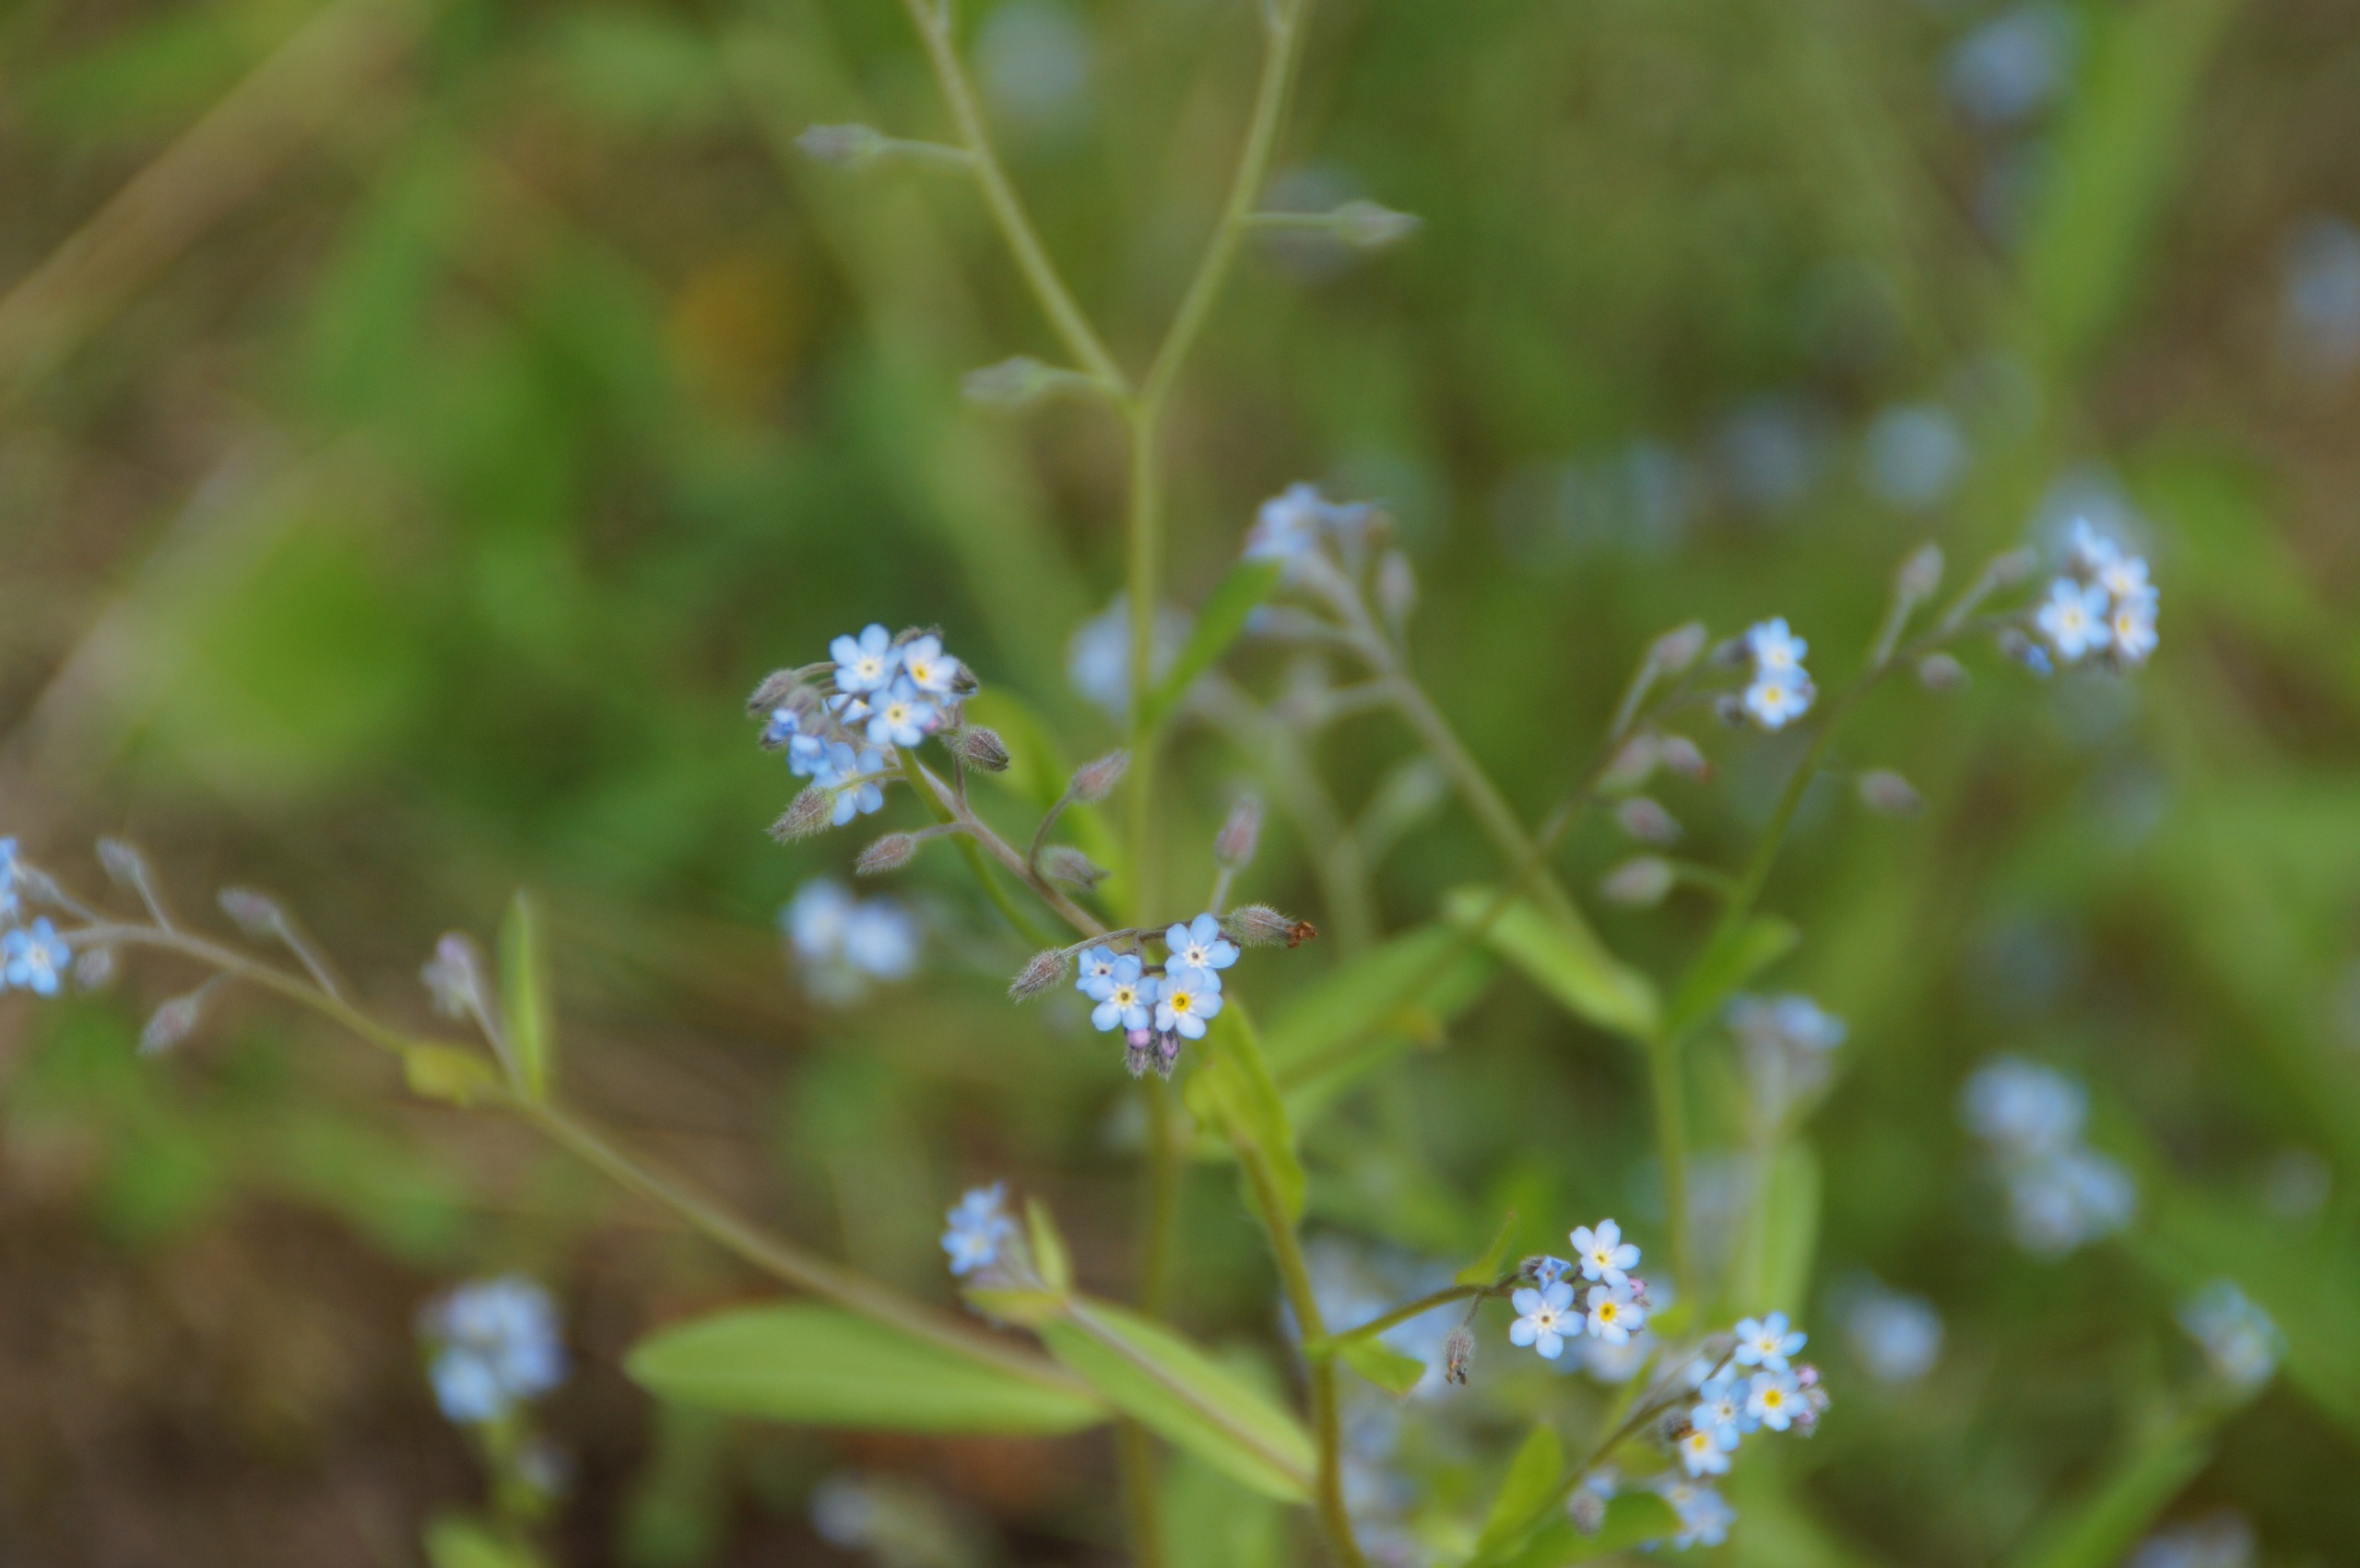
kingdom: Plantae
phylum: Tracheophyta
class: Magnoliopsida
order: Boraginales
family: Boraginaceae
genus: Myosotis
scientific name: Myosotis arvensis
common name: Mark-forglemmigej
